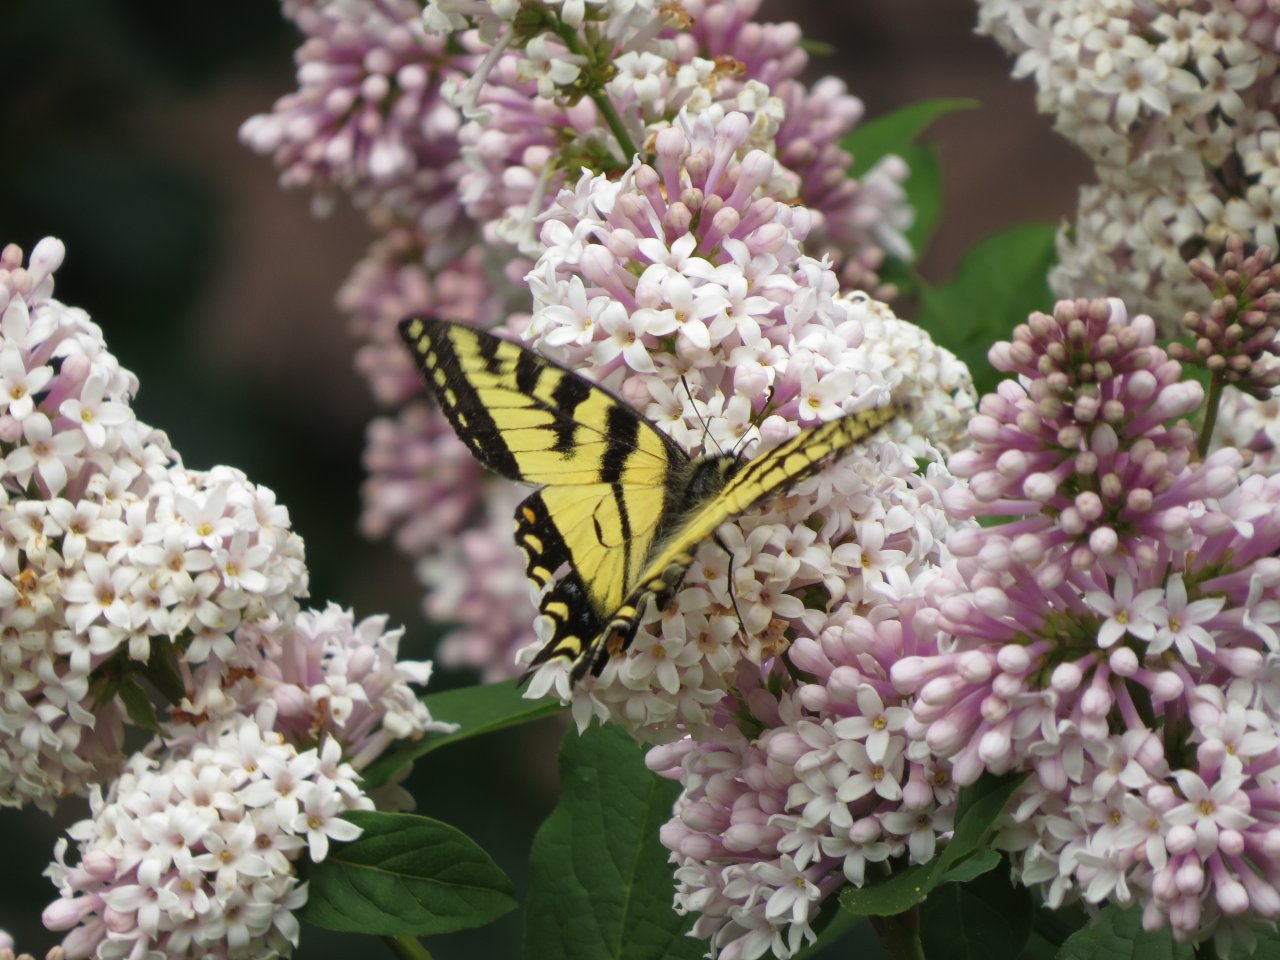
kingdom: Animalia
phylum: Arthropoda
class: Insecta
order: Lepidoptera
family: Papilionidae
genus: Pterourus
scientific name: Pterourus canadensis
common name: Canadian Tiger Swallowtail
